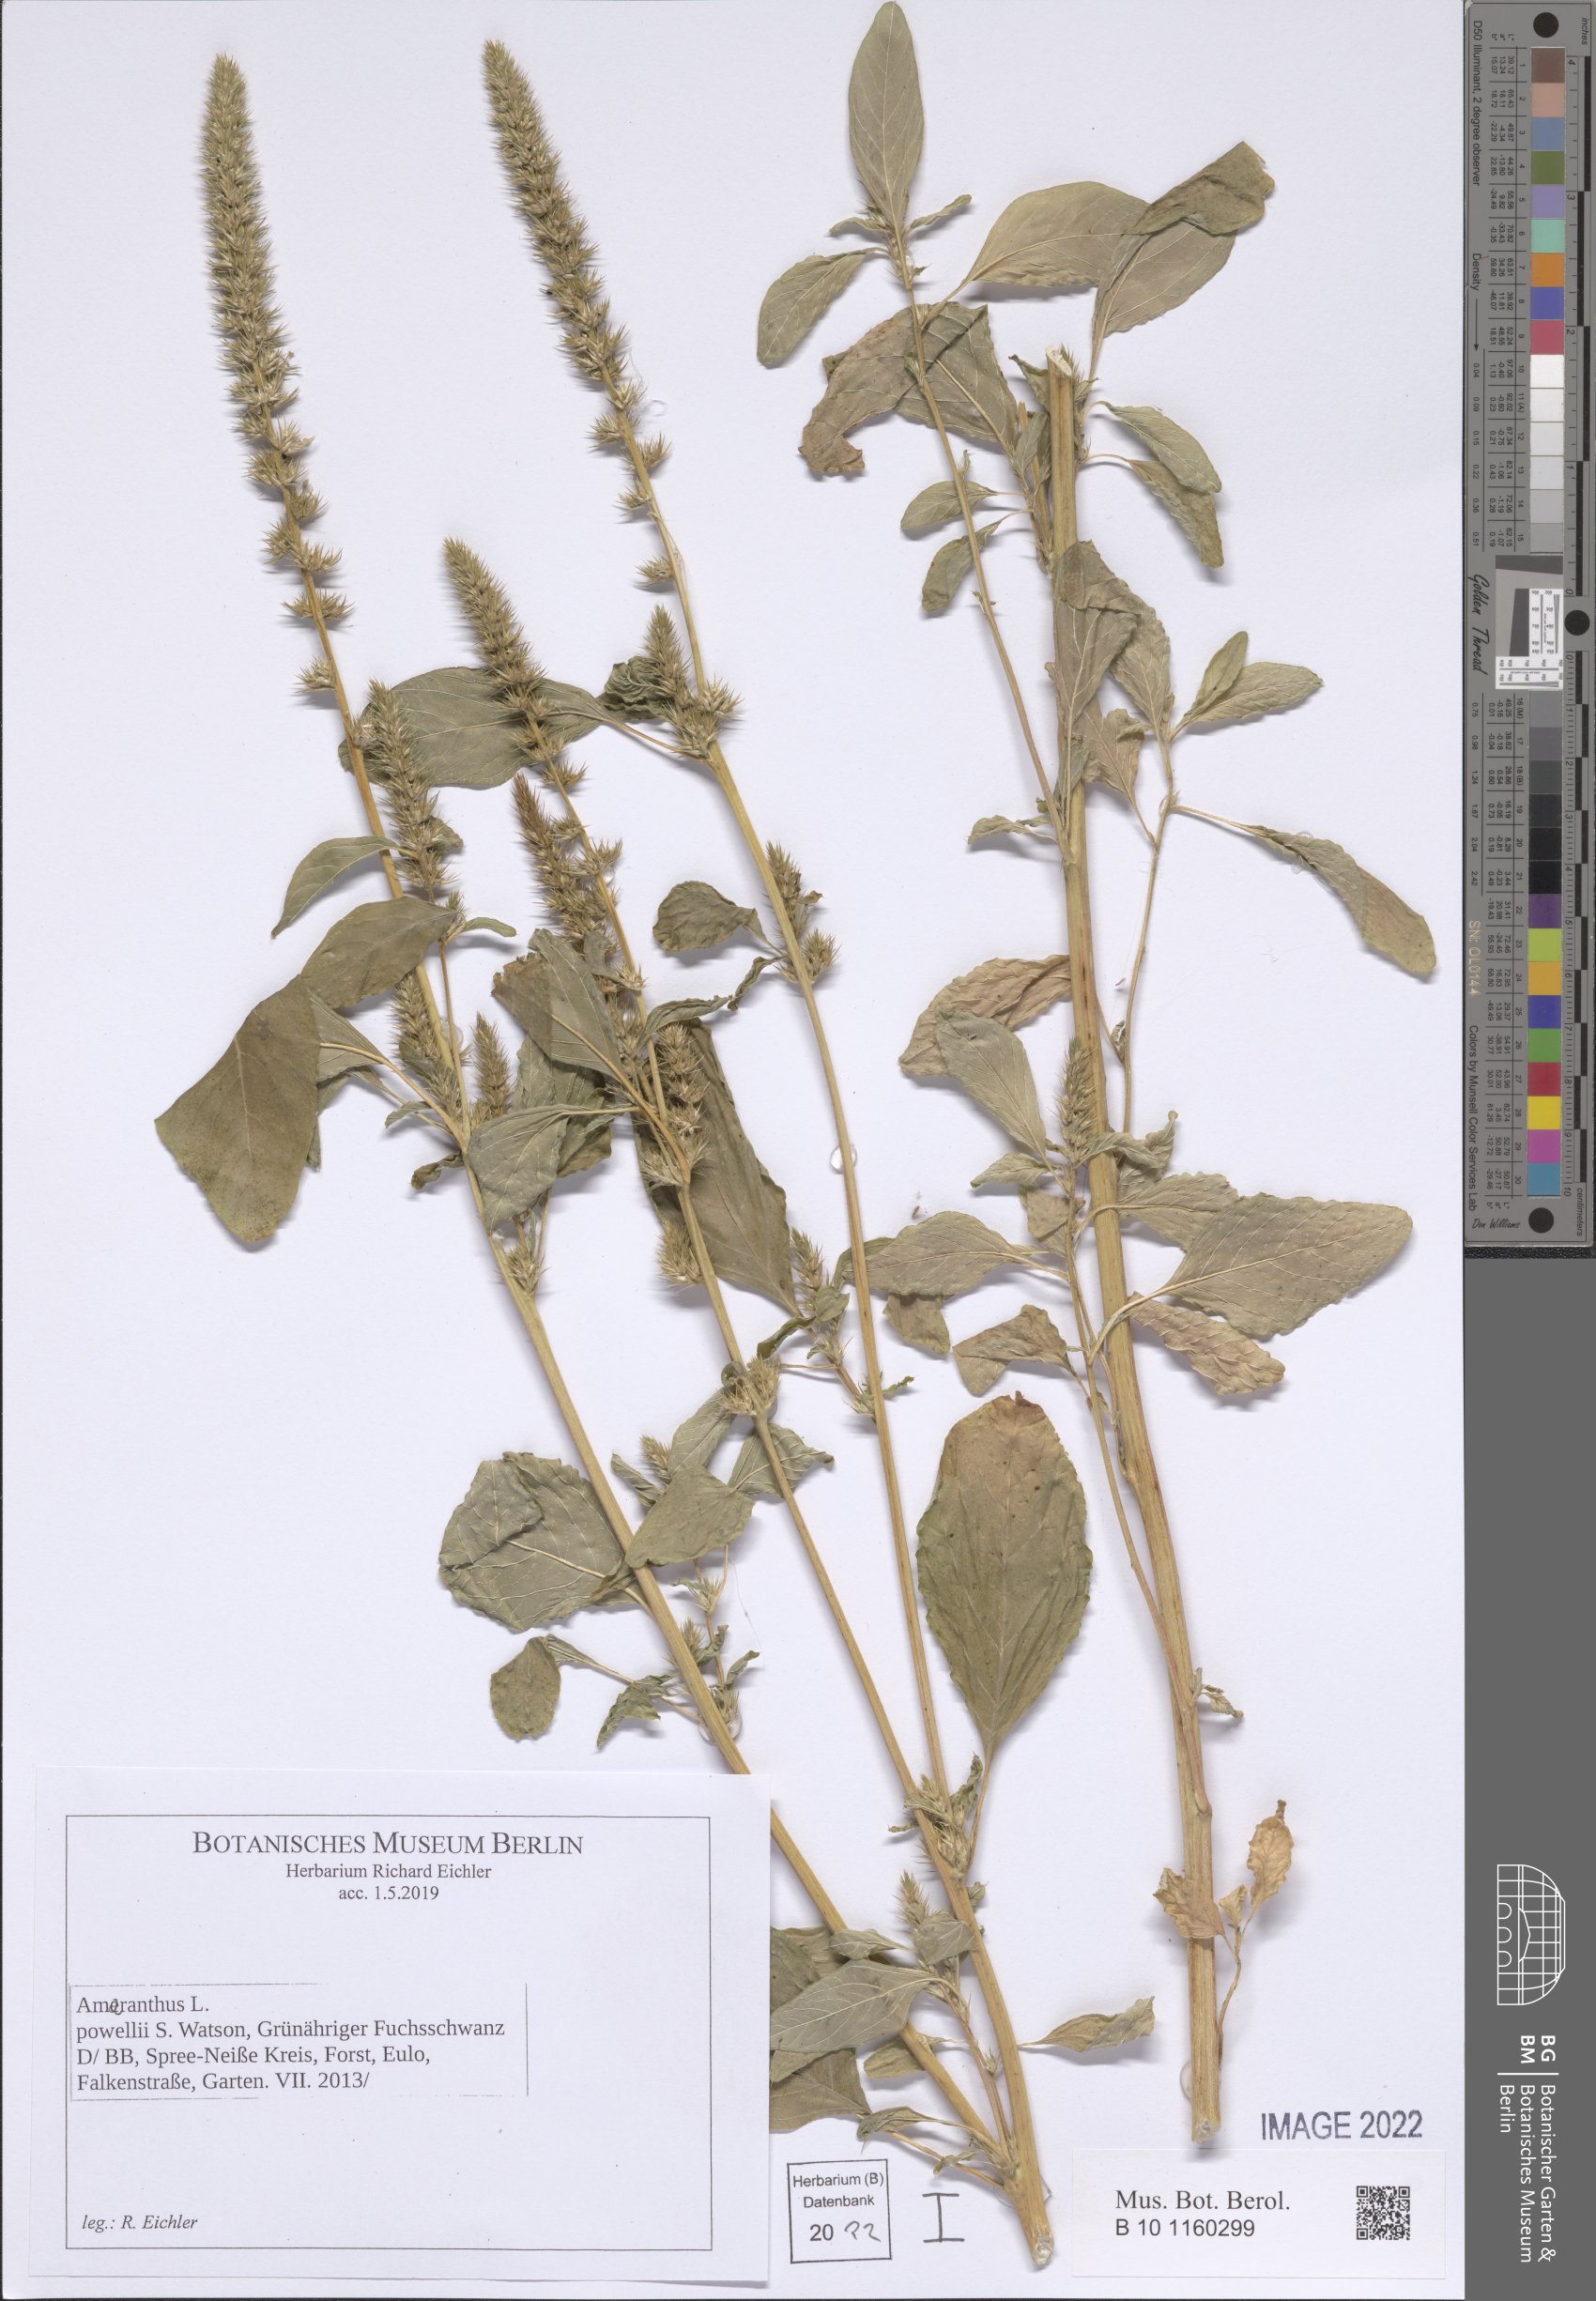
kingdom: Plantae
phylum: Tracheophyta
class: Magnoliopsida
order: Caryophyllales
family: Amaranthaceae
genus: Amaranthus
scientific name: Amaranthus powellii
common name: Powell's amaranth
